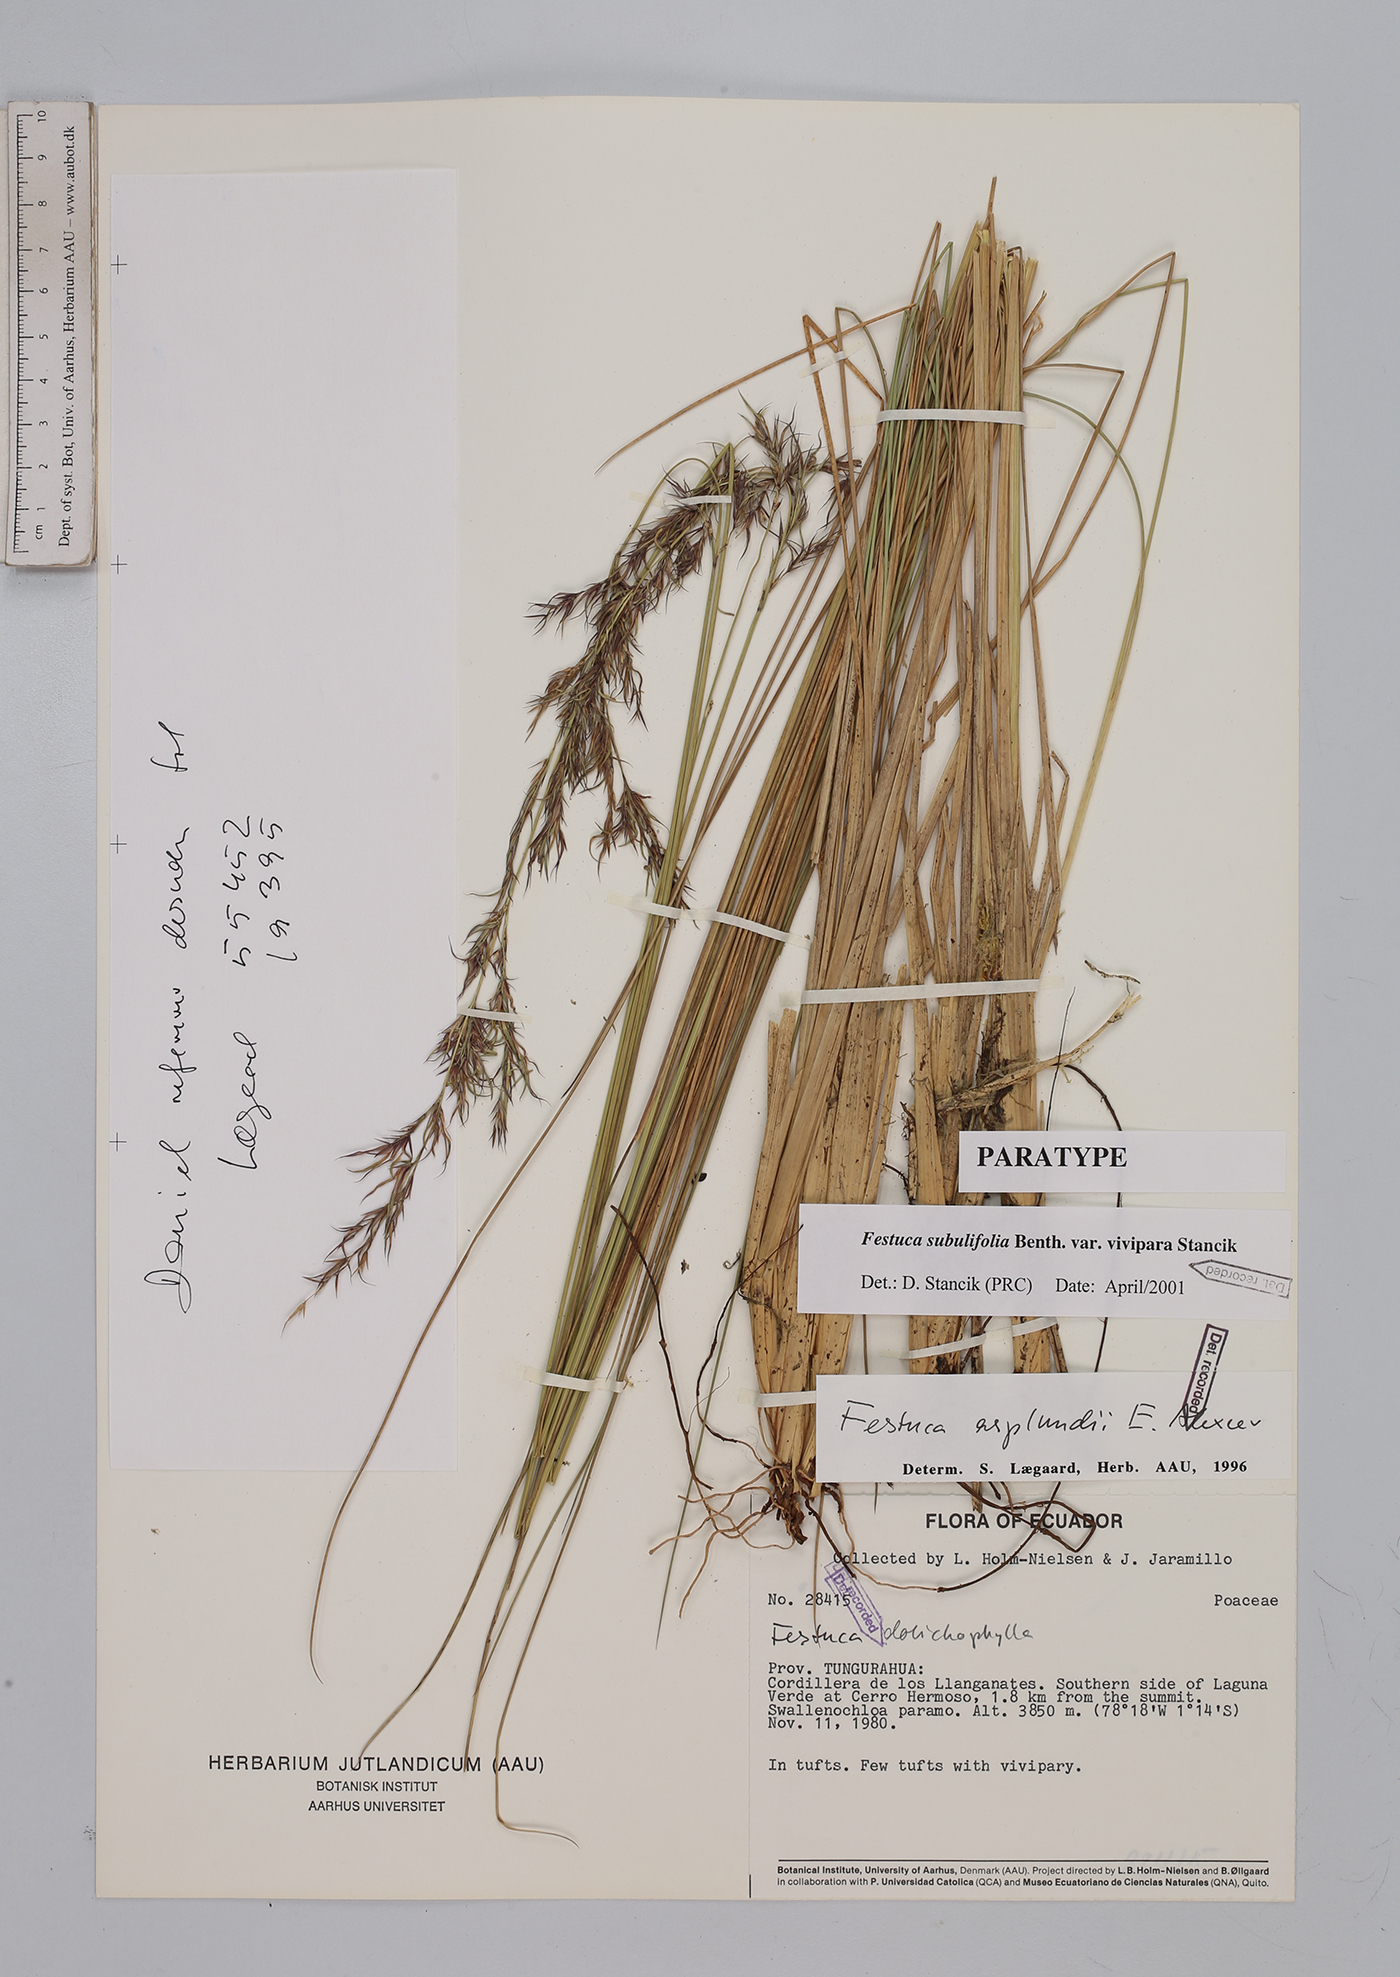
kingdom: Plantae
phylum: Tracheophyta
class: Liliopsida
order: Poales
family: Poaceae
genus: Festuca
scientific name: Festuca dolichophylla
